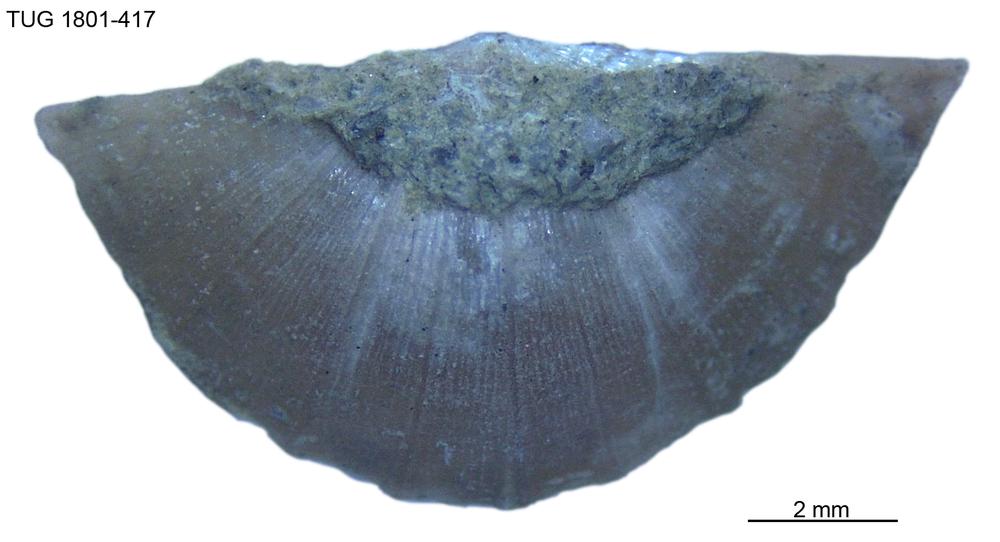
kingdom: Animalia
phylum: Brachiopoda
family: Oldhaminidae
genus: Eoplectodonta
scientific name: Eoplectodonta
